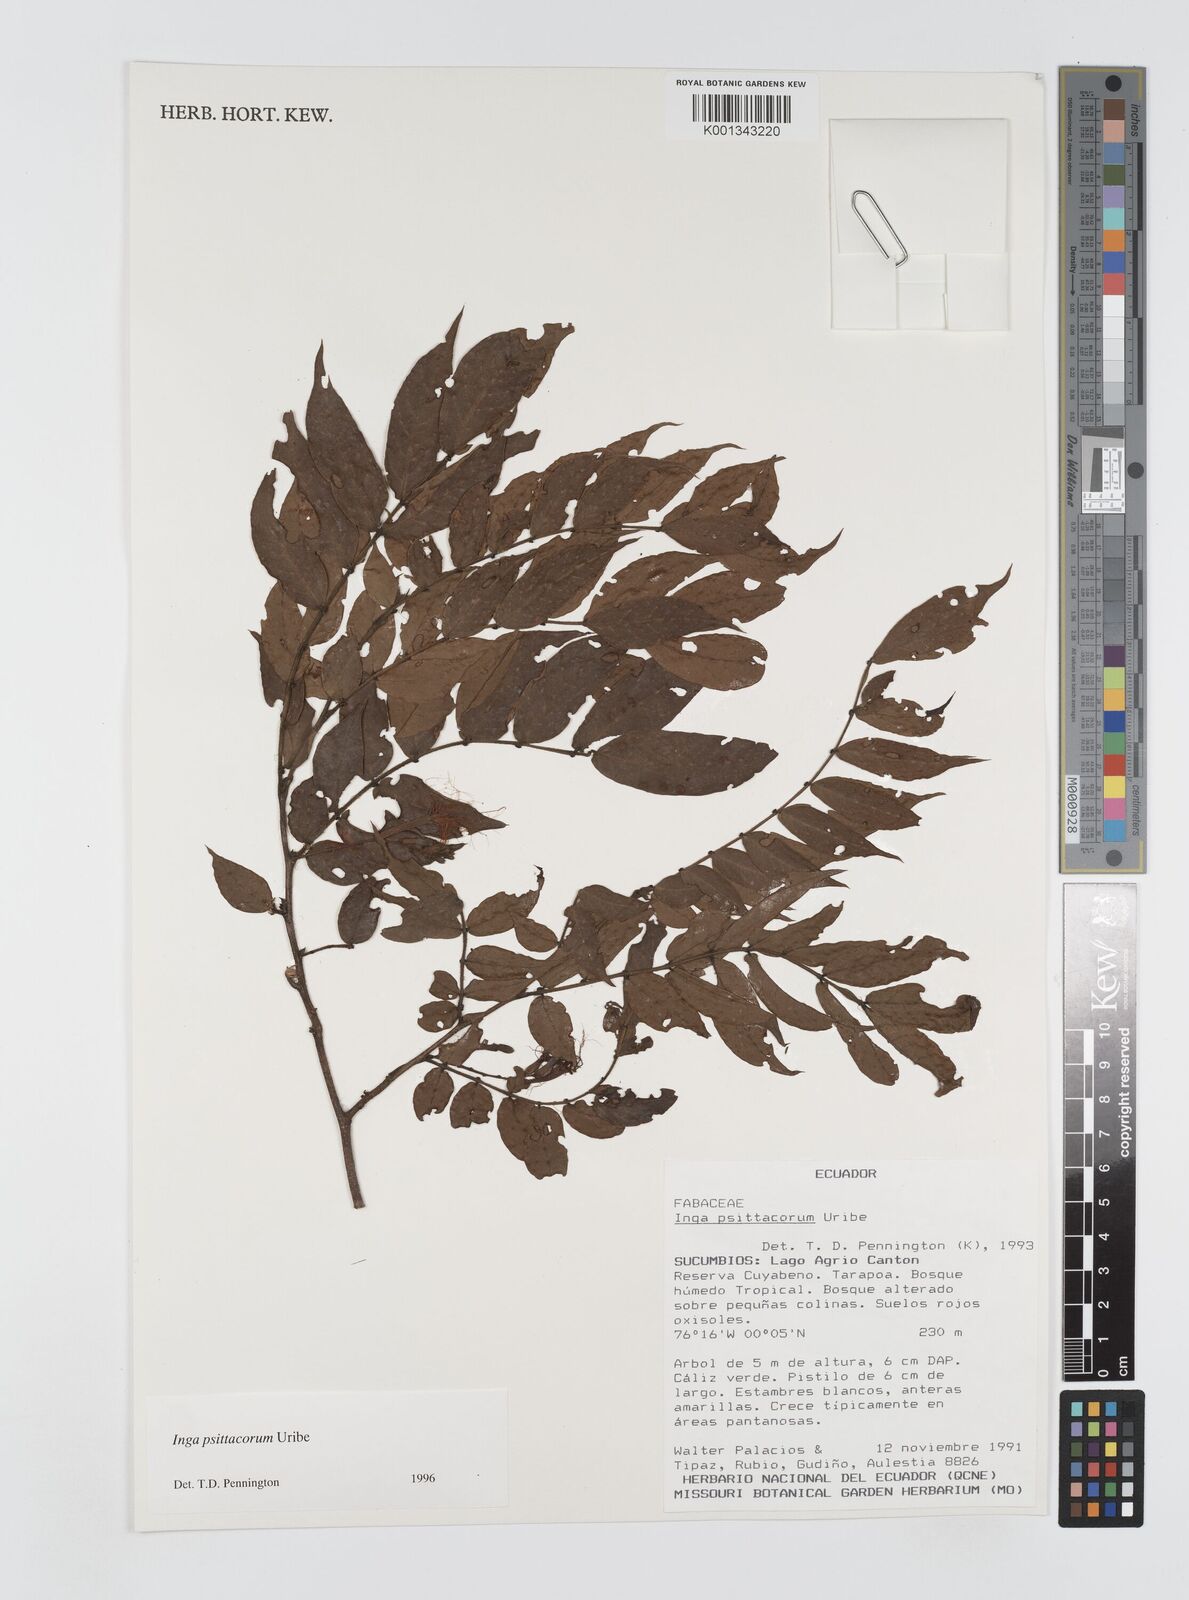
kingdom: Plantae
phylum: Tracheophyta
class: Magnoliopsida
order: Fabales
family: Fabaceae
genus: Inga
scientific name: Inga psittacorum
